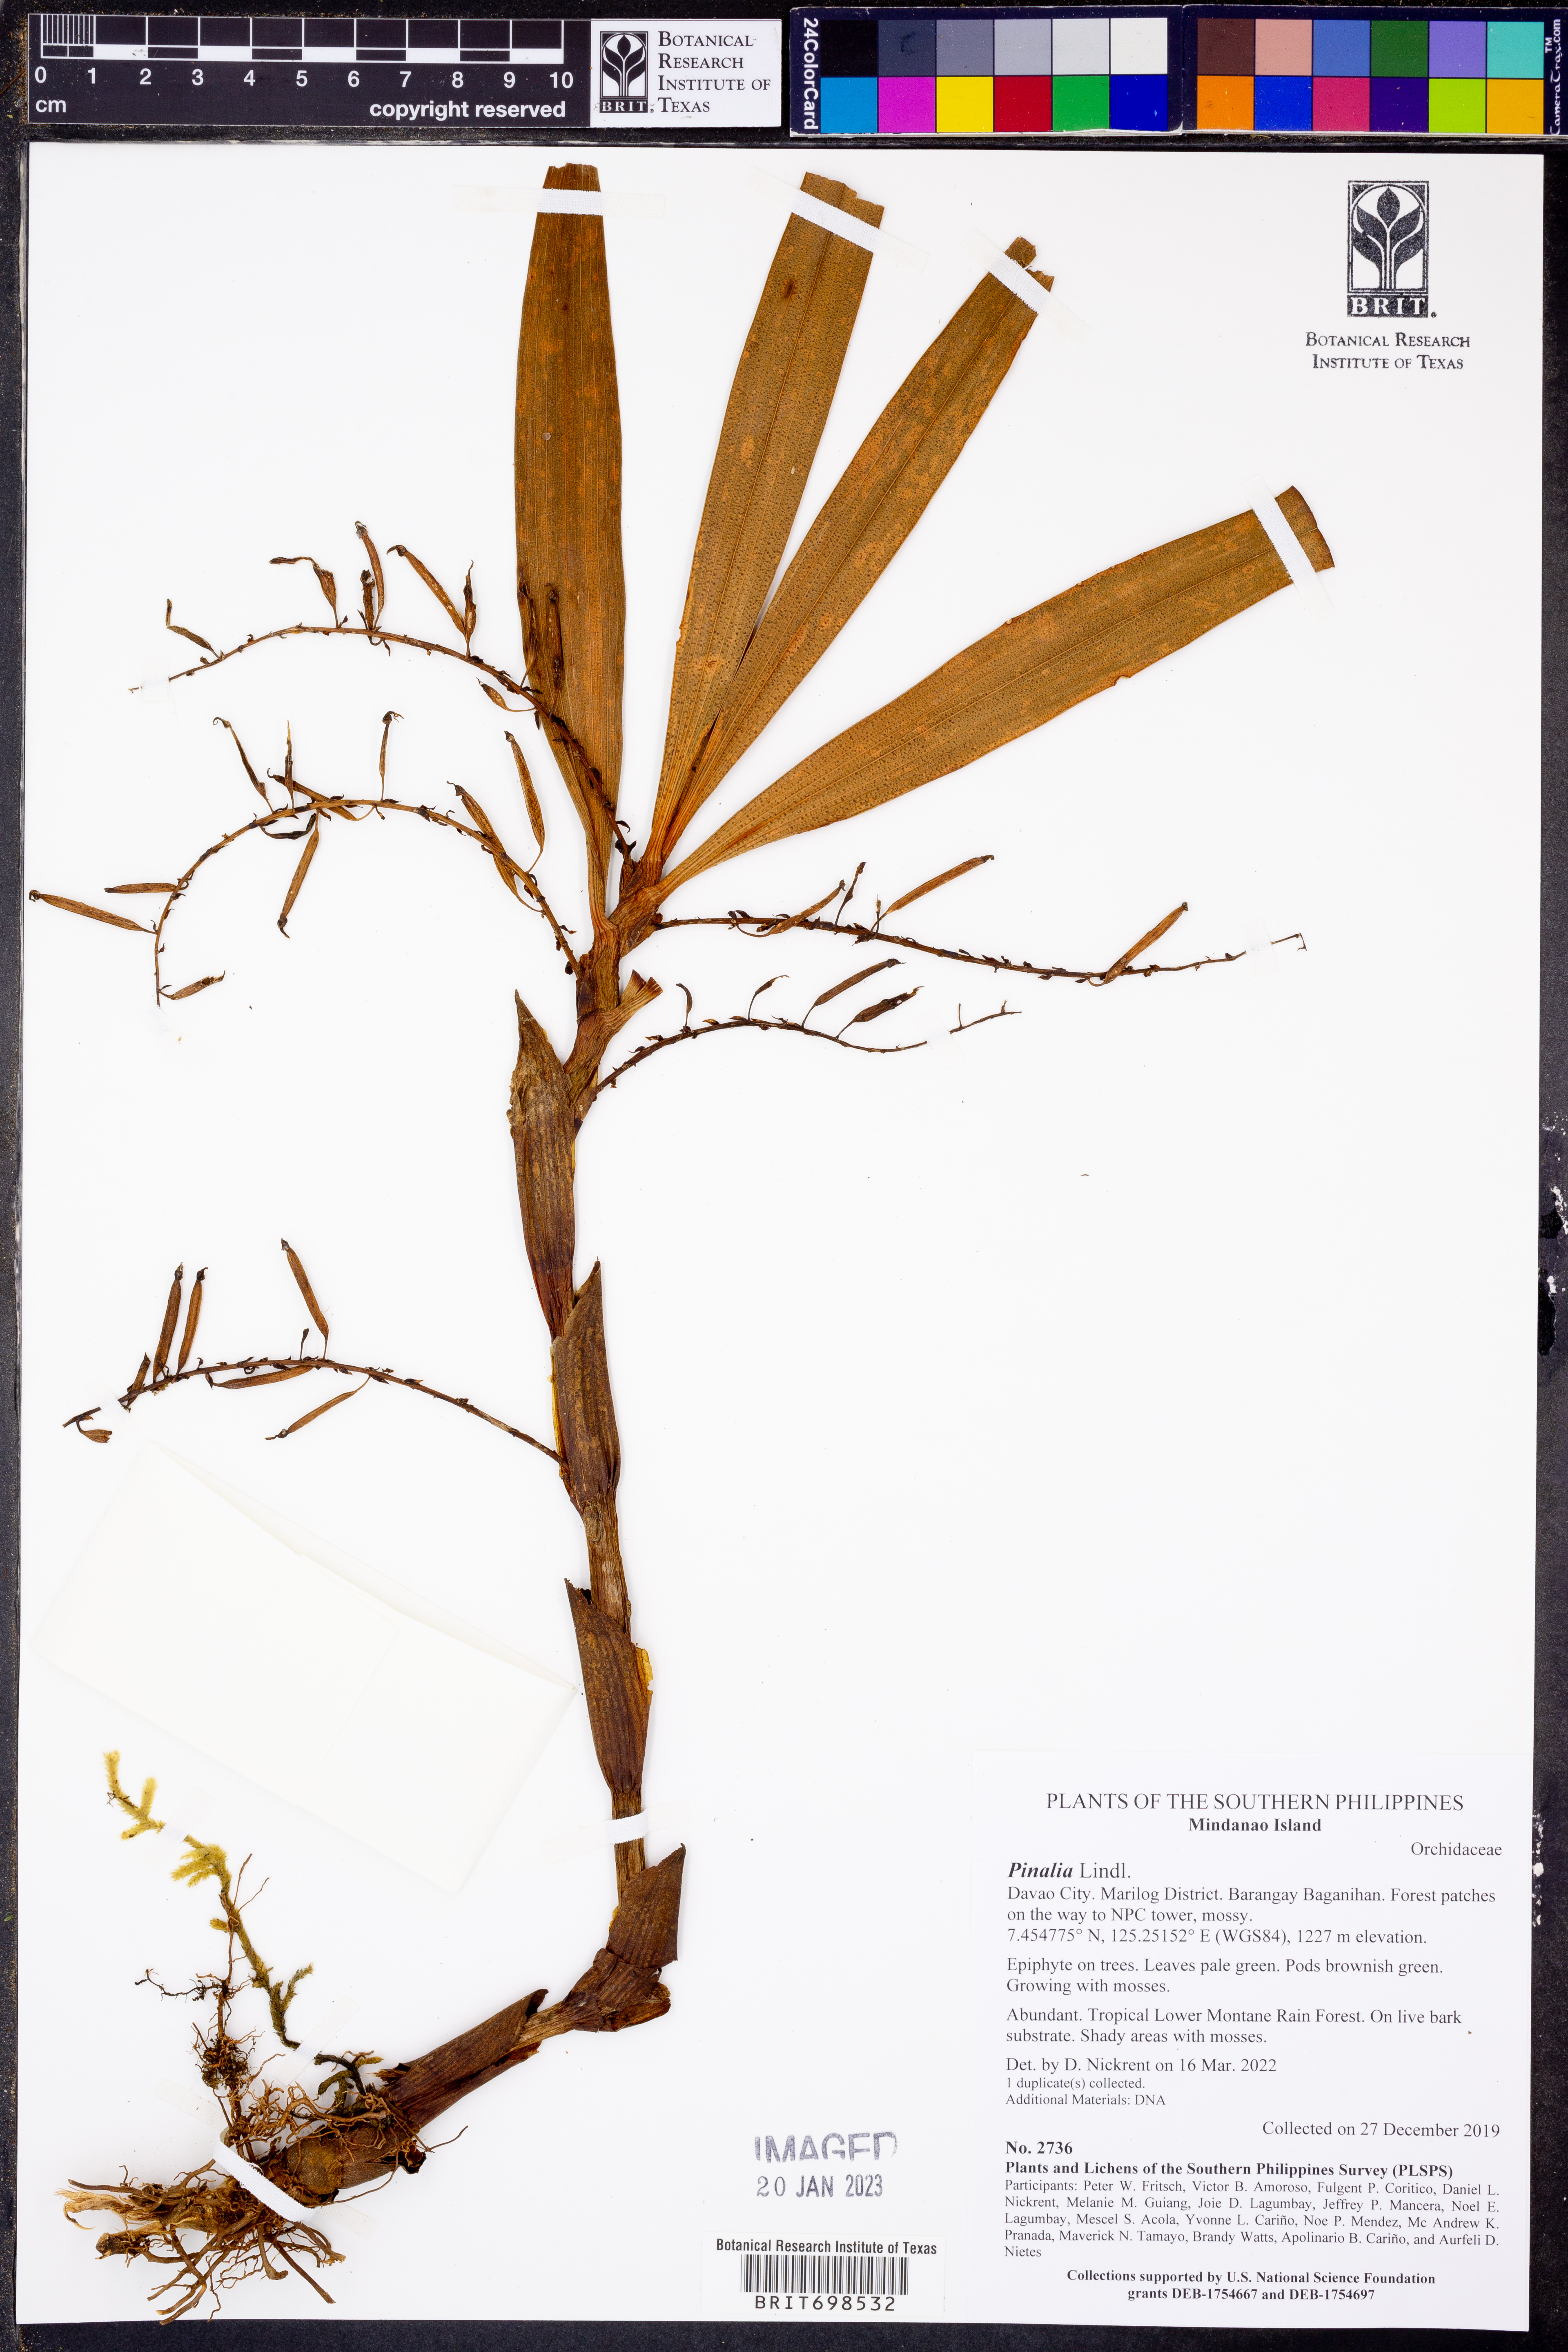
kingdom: Plantae
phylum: Tracheophyta
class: Liliopsida
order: Asparagales
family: Orchidaceae
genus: Pinalia
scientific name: Pinalia
